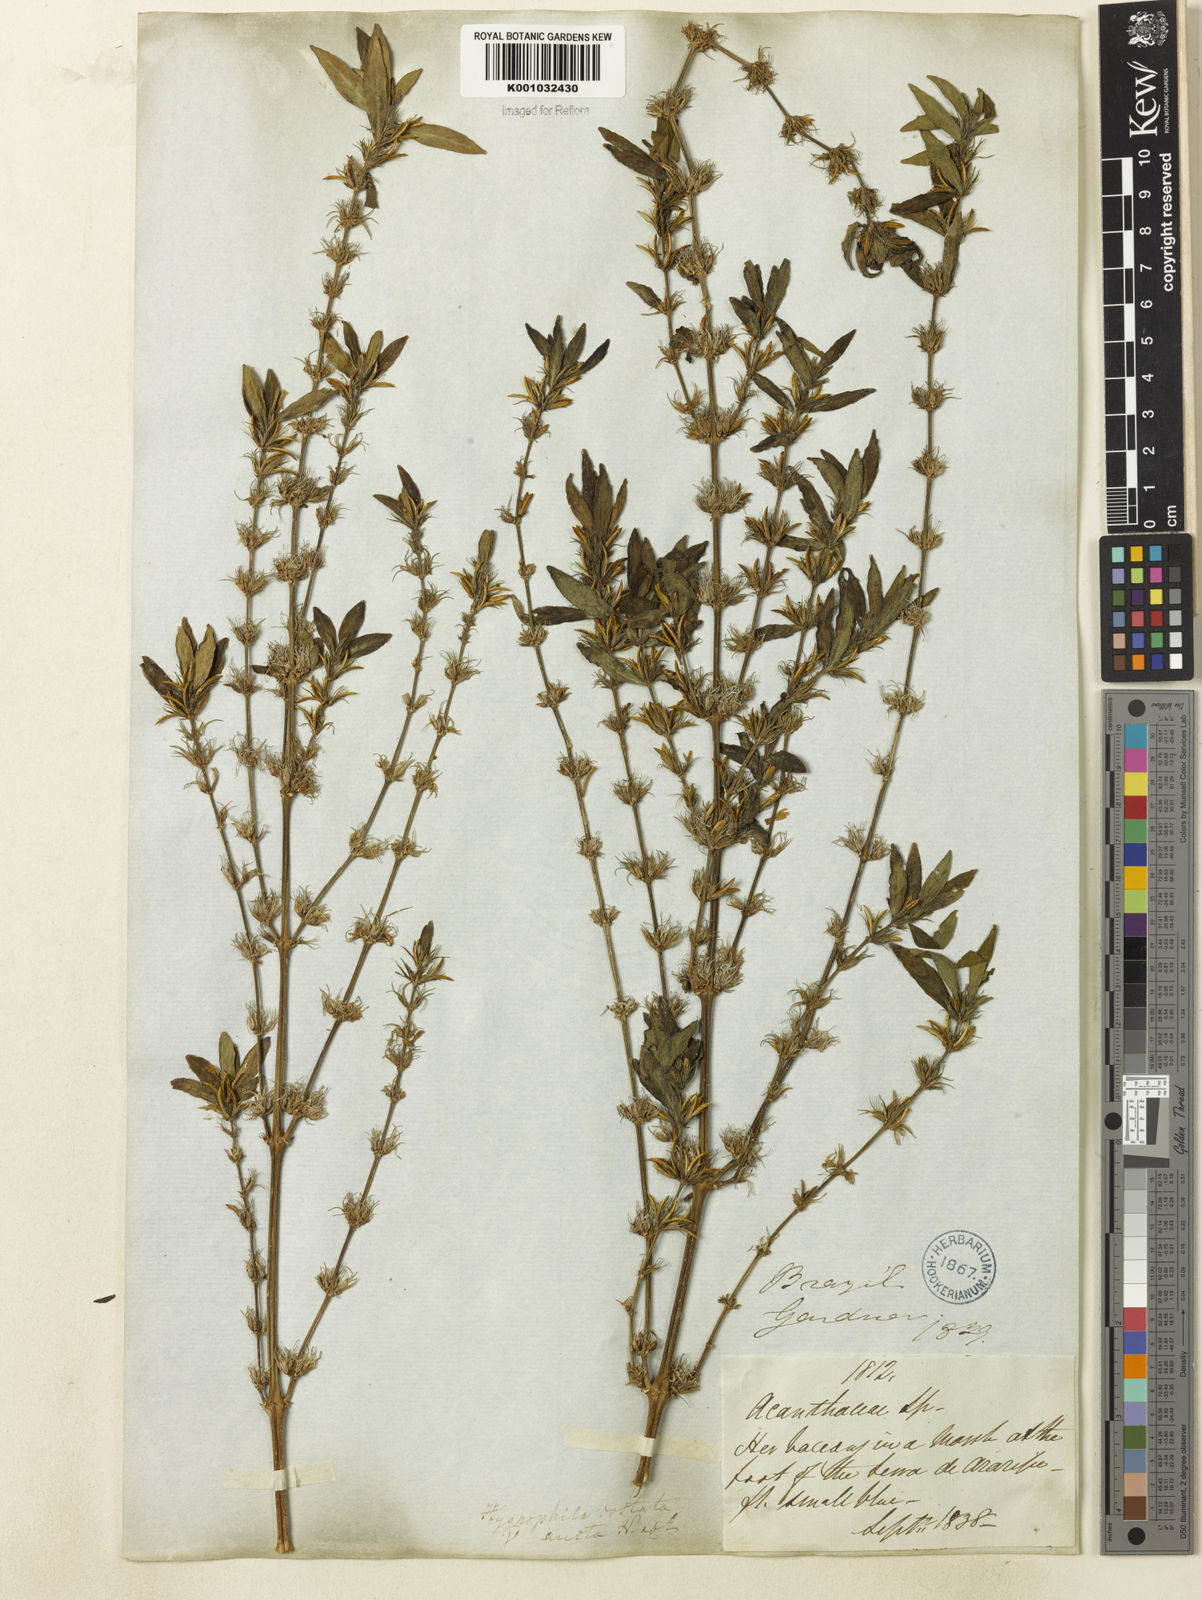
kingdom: Plantae
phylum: Tracheophyta
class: Magnoliopsida
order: Lamiales
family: Acanthaceae
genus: Hygrophila
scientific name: Hygrophila costata
